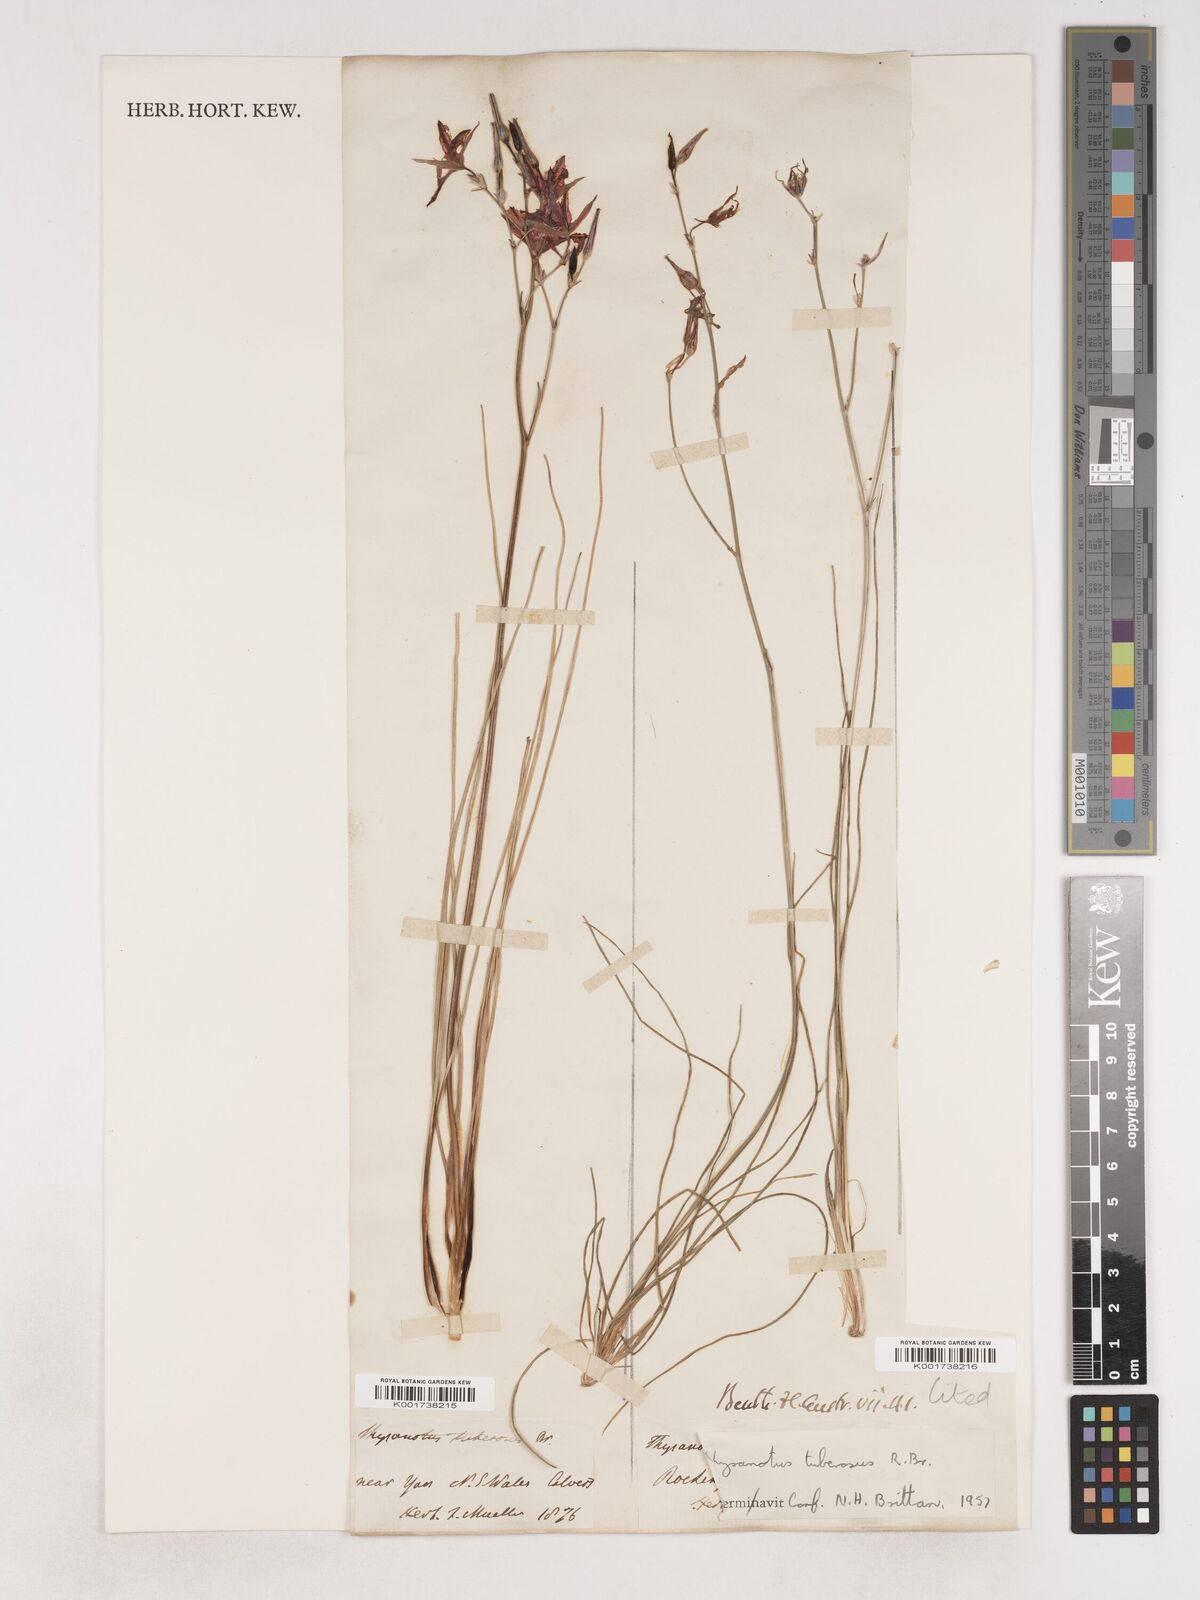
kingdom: Plantae
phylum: Tracheophyta
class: Liliopsida
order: Asparagales
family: Asparagaceae
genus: Thysanotus
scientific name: Thysanotus tuberosus
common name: Common fringed-lily
